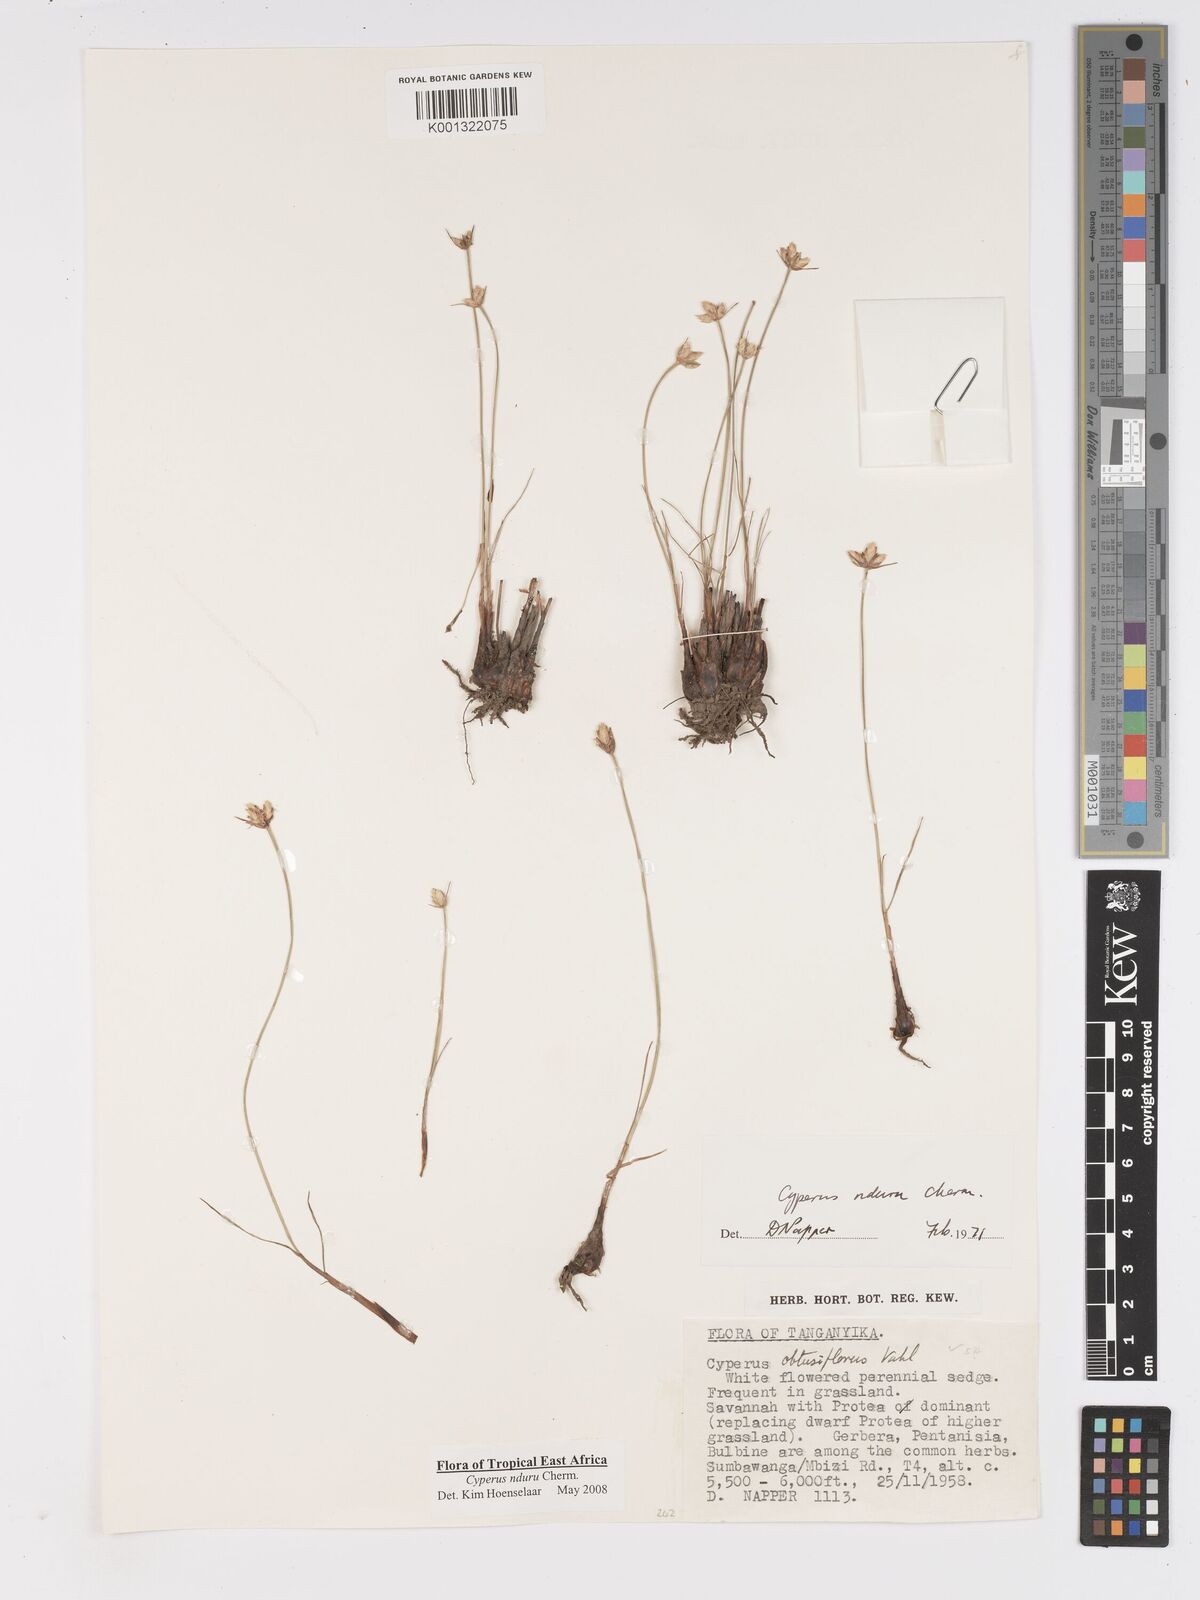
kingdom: Plantae
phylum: Tracheophyta
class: Liliopsida
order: Poales
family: Cyperaceae
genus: Cyperus
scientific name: Cyperus nduru
